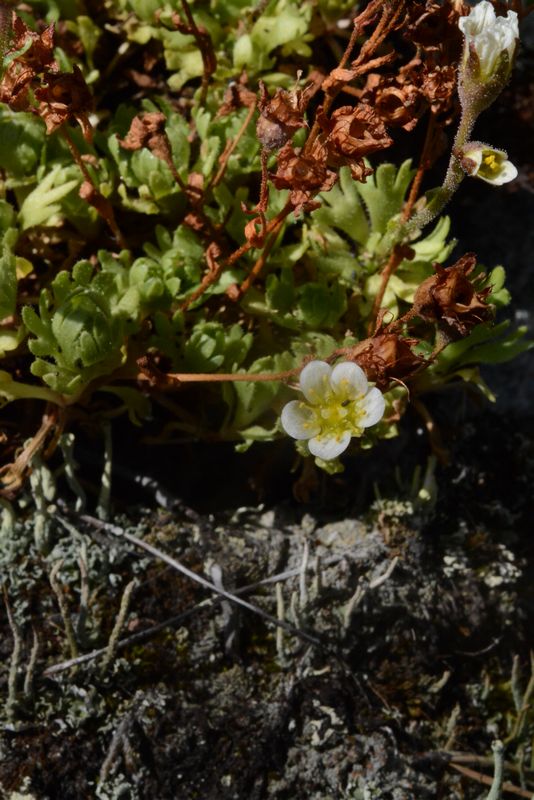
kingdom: Plantae
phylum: Tracheophyta
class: Magnoliopsida
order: Saxifragales
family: Saxifragaceae
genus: Saxifraga
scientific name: Saxifraga cespitosa
